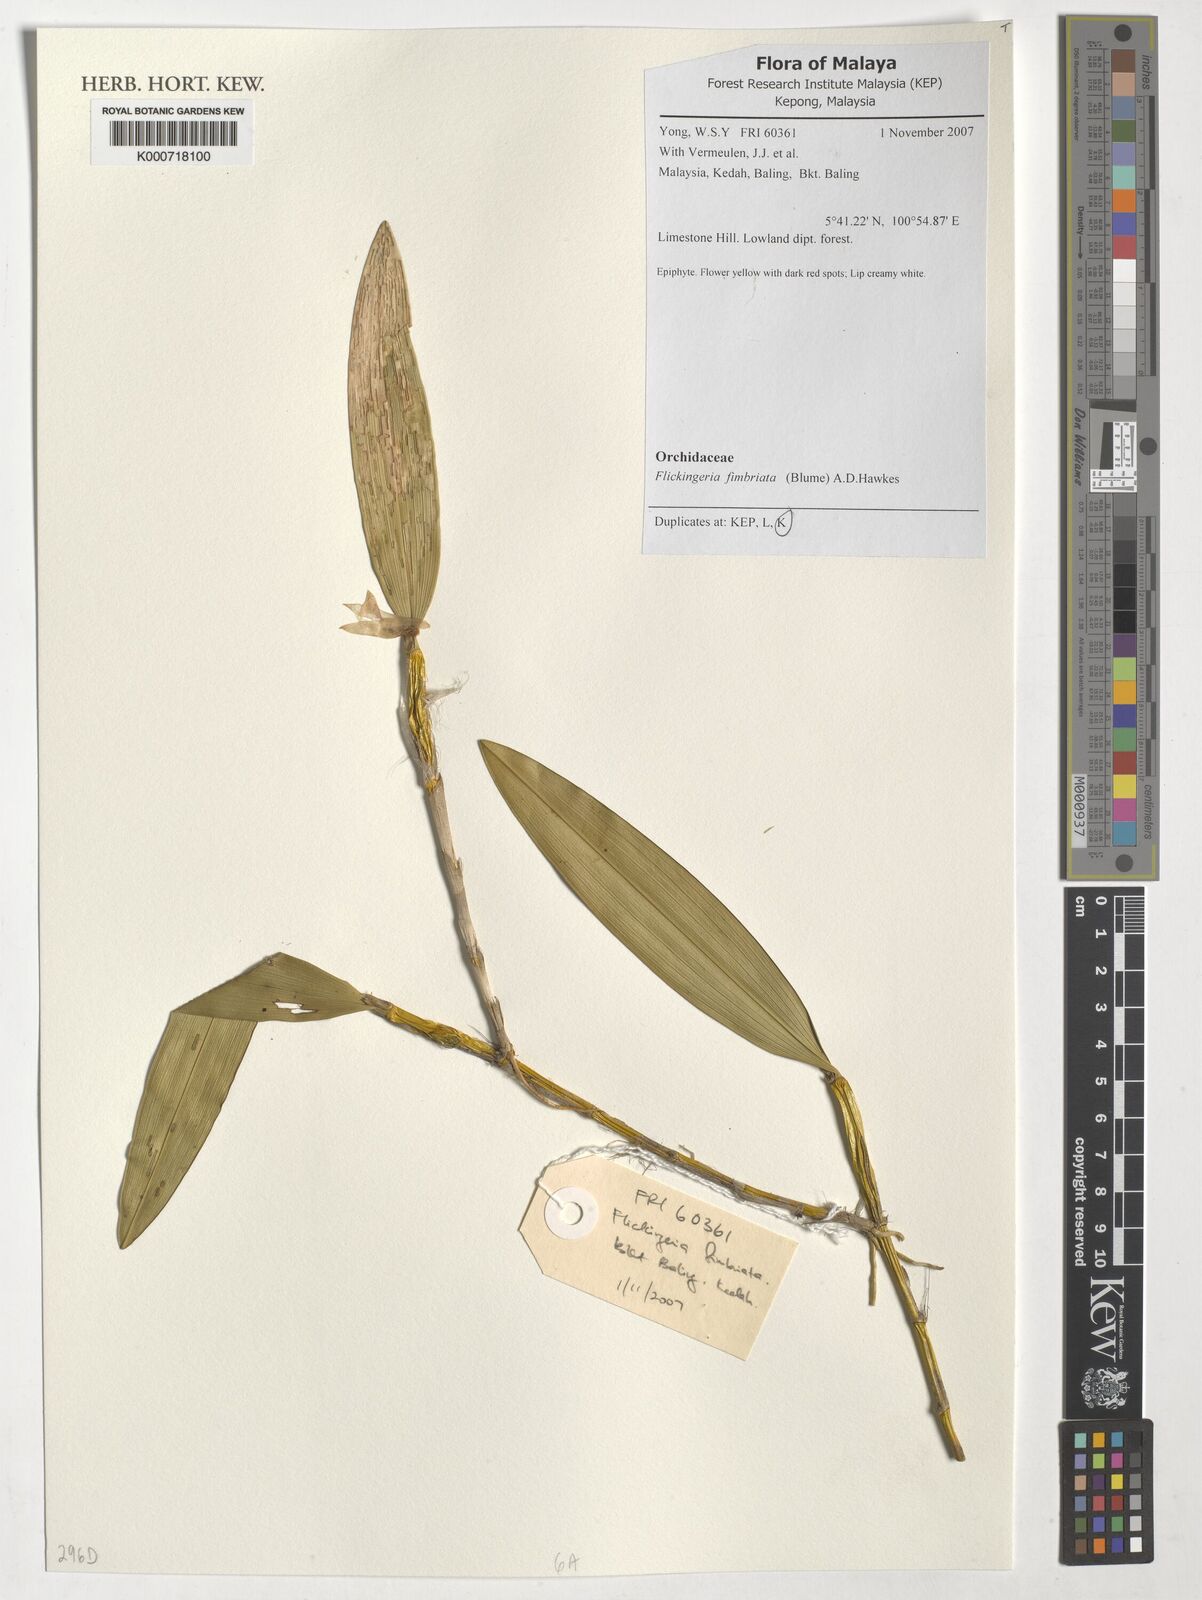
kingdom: Plantae
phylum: Tracheophyta
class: Liliopsida
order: Asparagales
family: Orchidaceae
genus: Dendrobium
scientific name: Dendrobium plicatile
